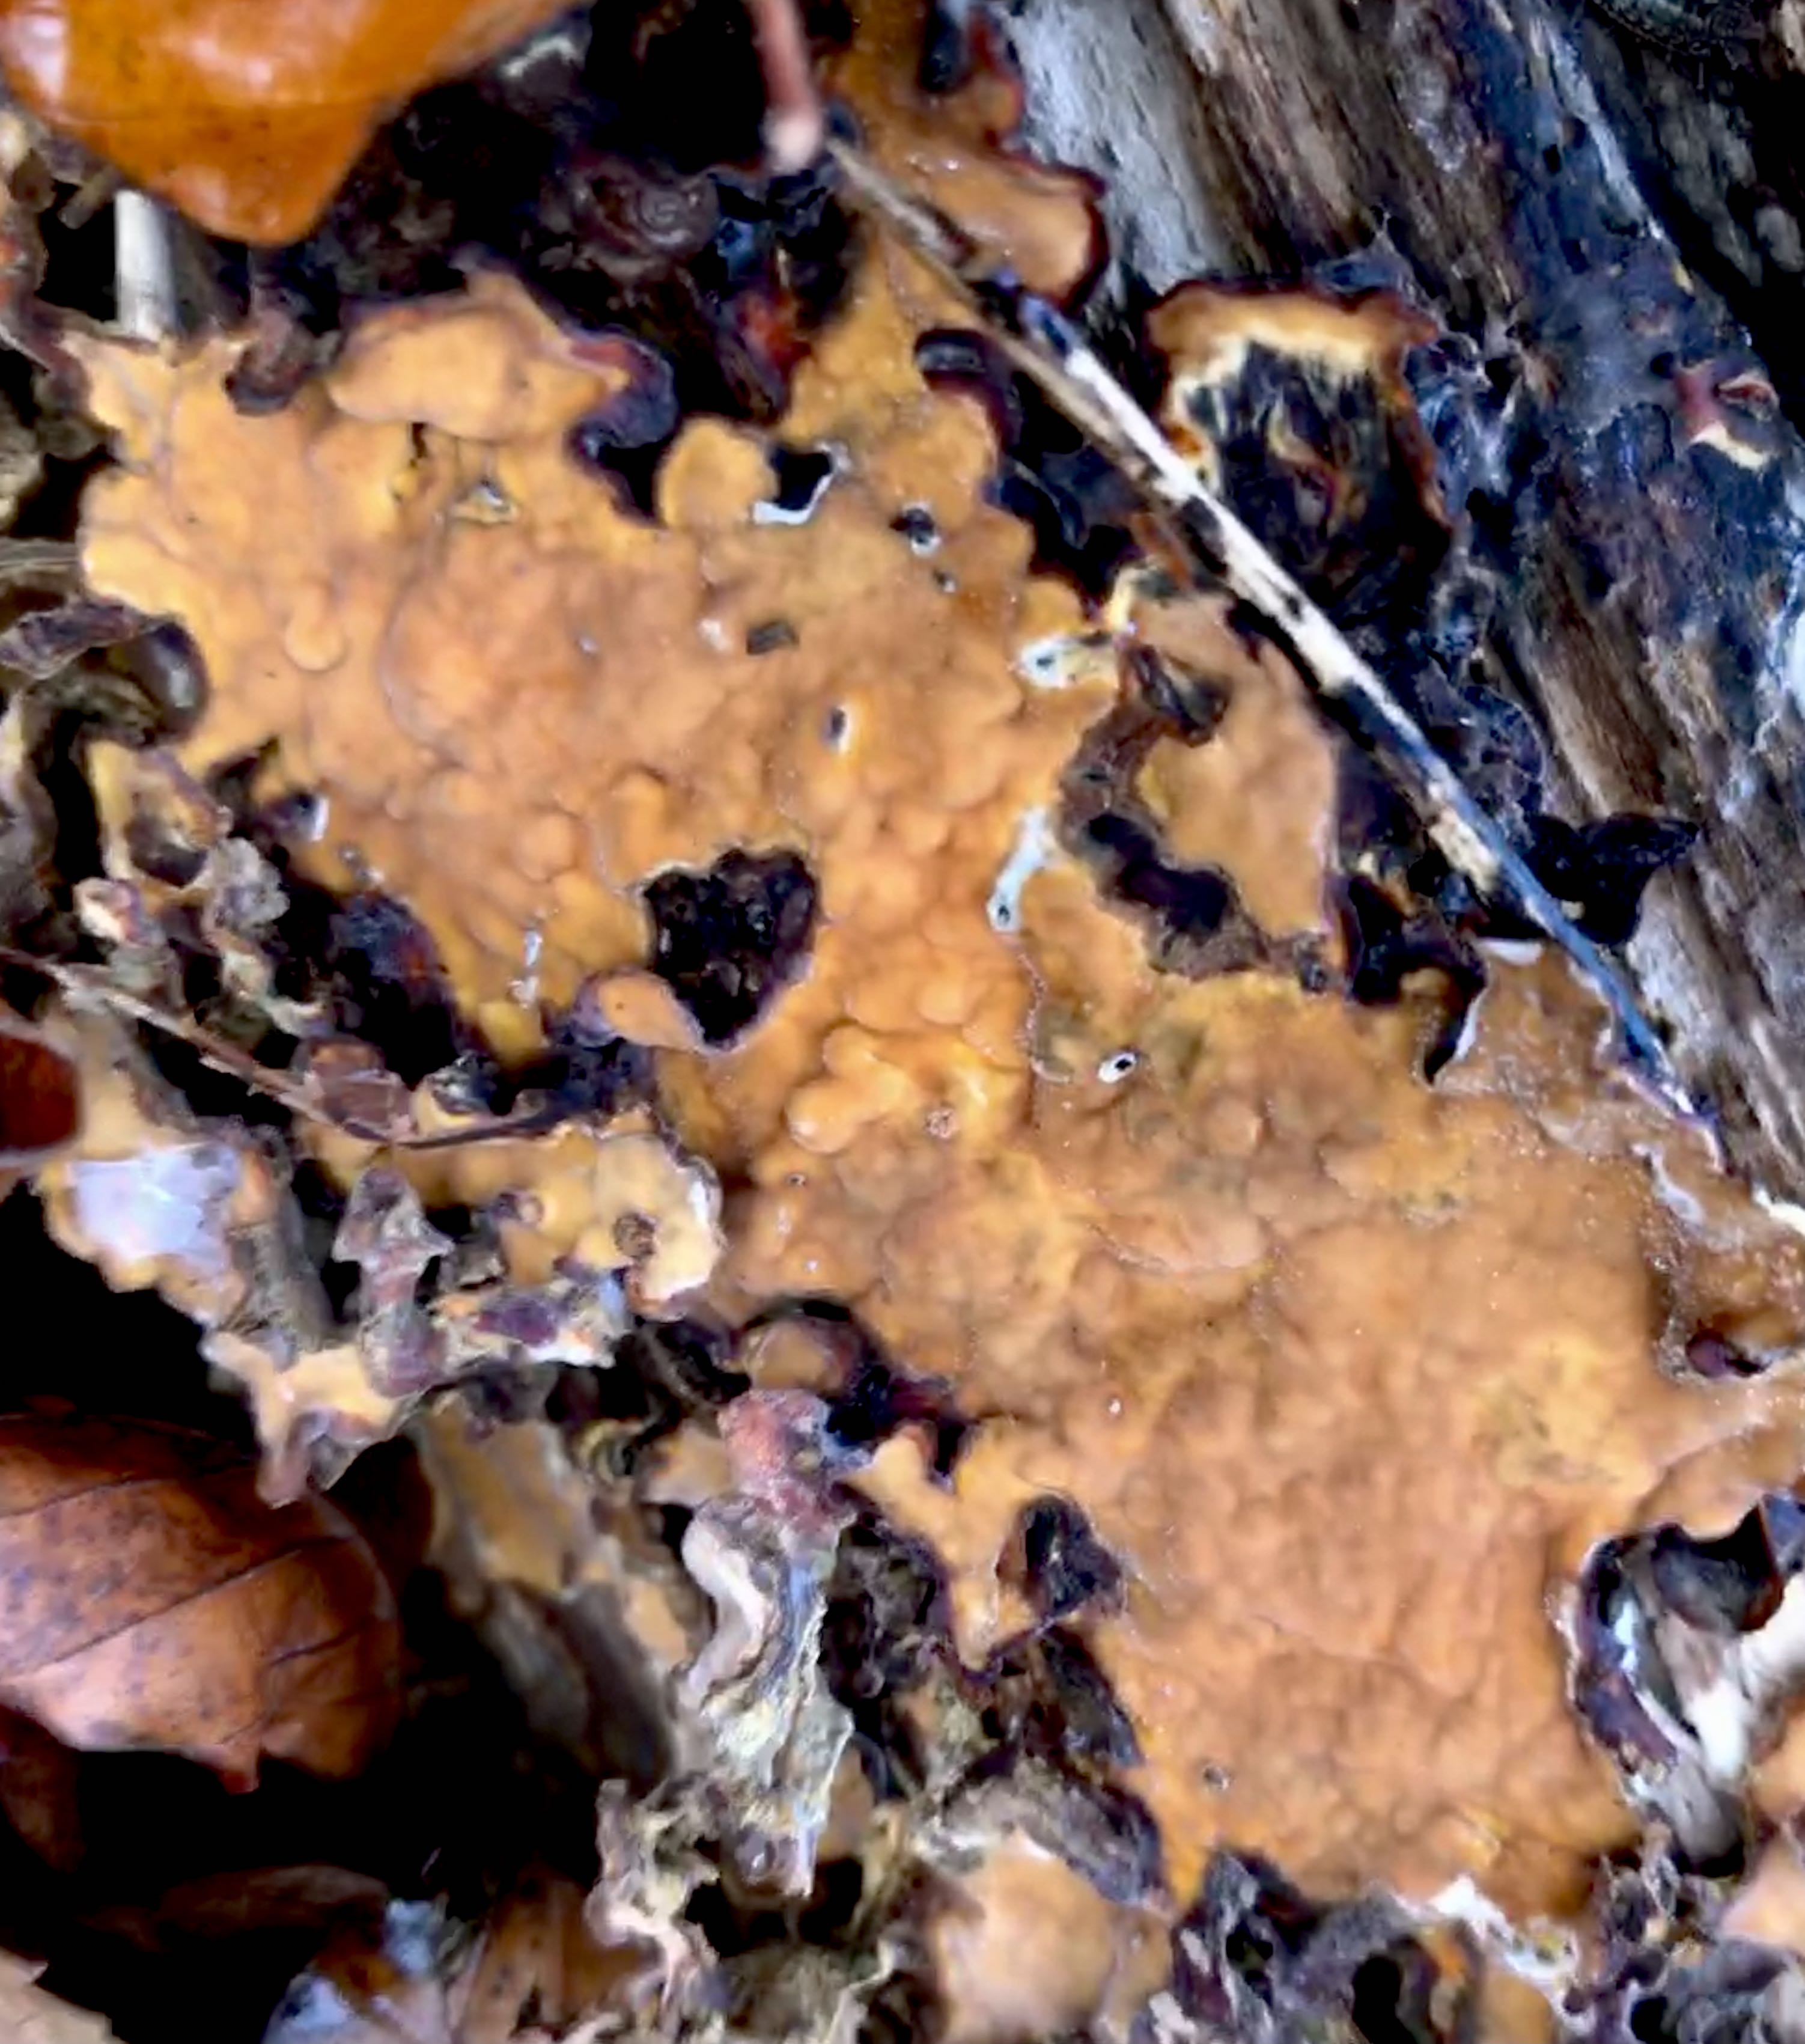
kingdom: Fungi
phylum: Basidiomycota
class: Agaricomycetes
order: Russulales
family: Stereaceae
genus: Stereum
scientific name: Stereum subtomentosum
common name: smuk lædersvamp
